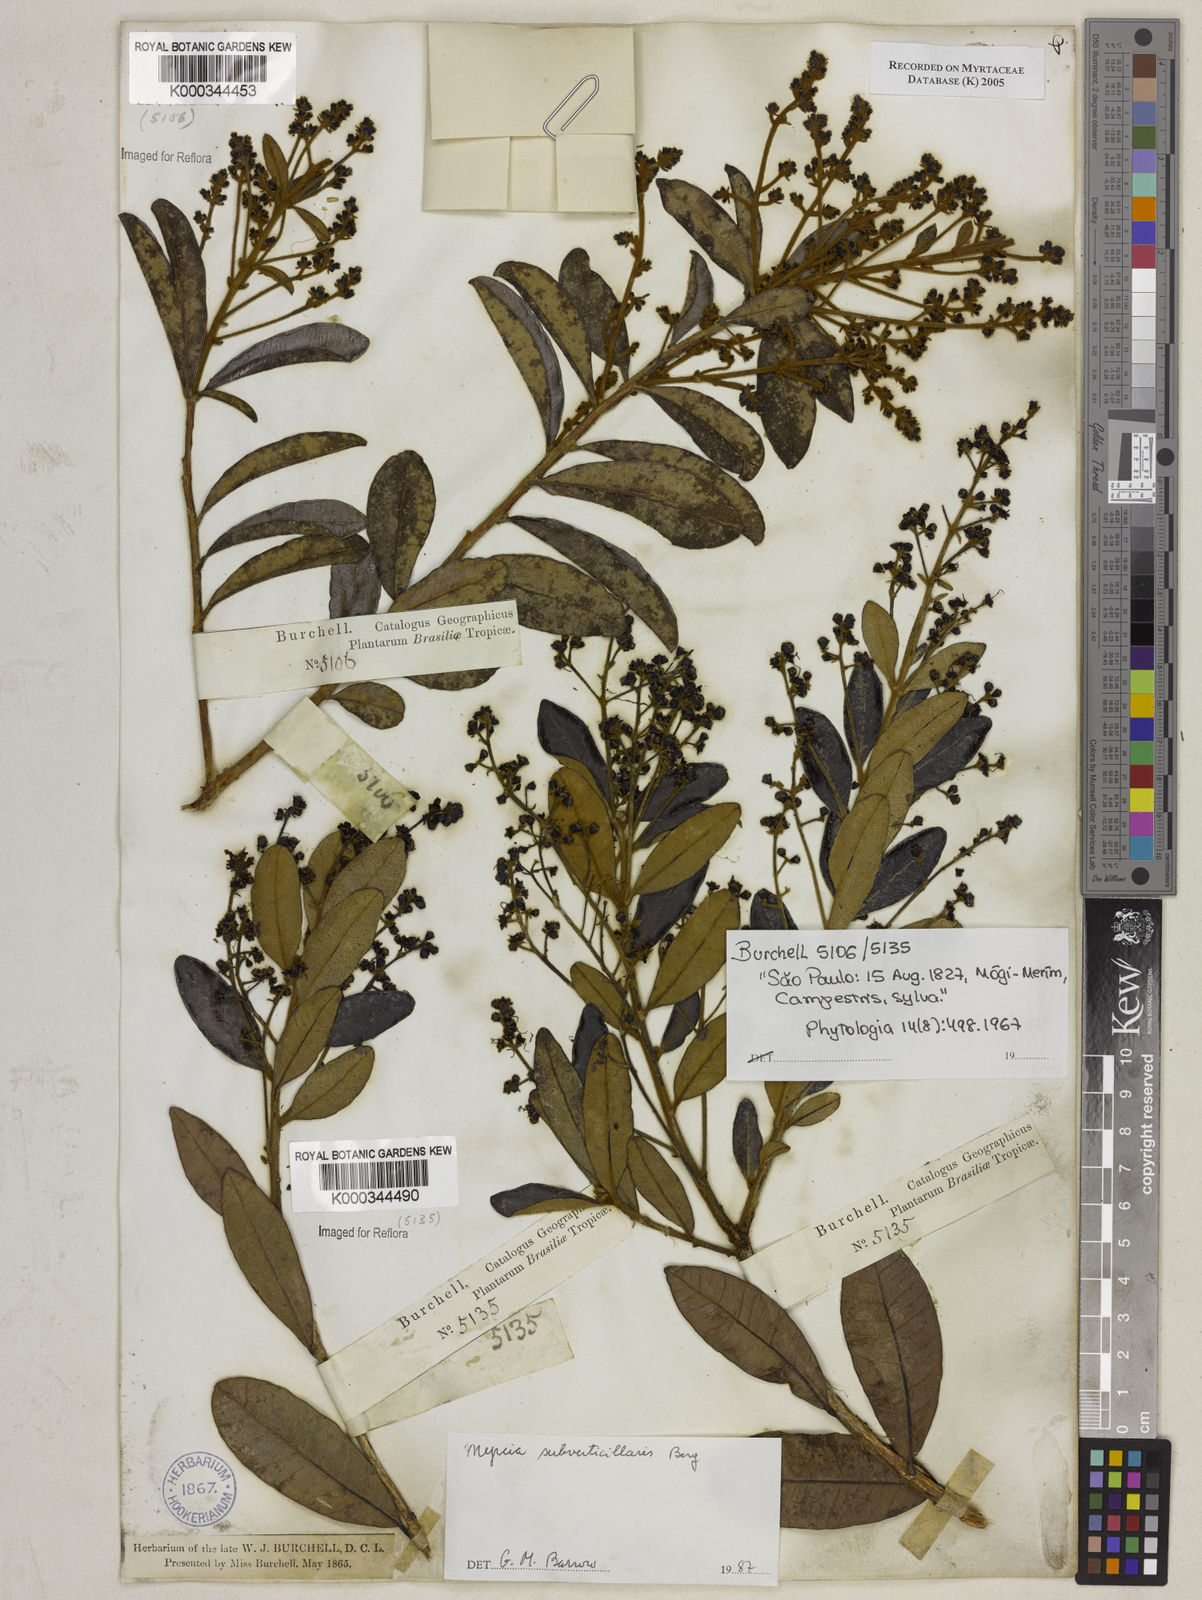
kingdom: Plantae
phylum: Tracheophyta
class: Magnoliopsida
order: Myrtales
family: Myrtaceae
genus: Myrcia
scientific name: Myrcia
